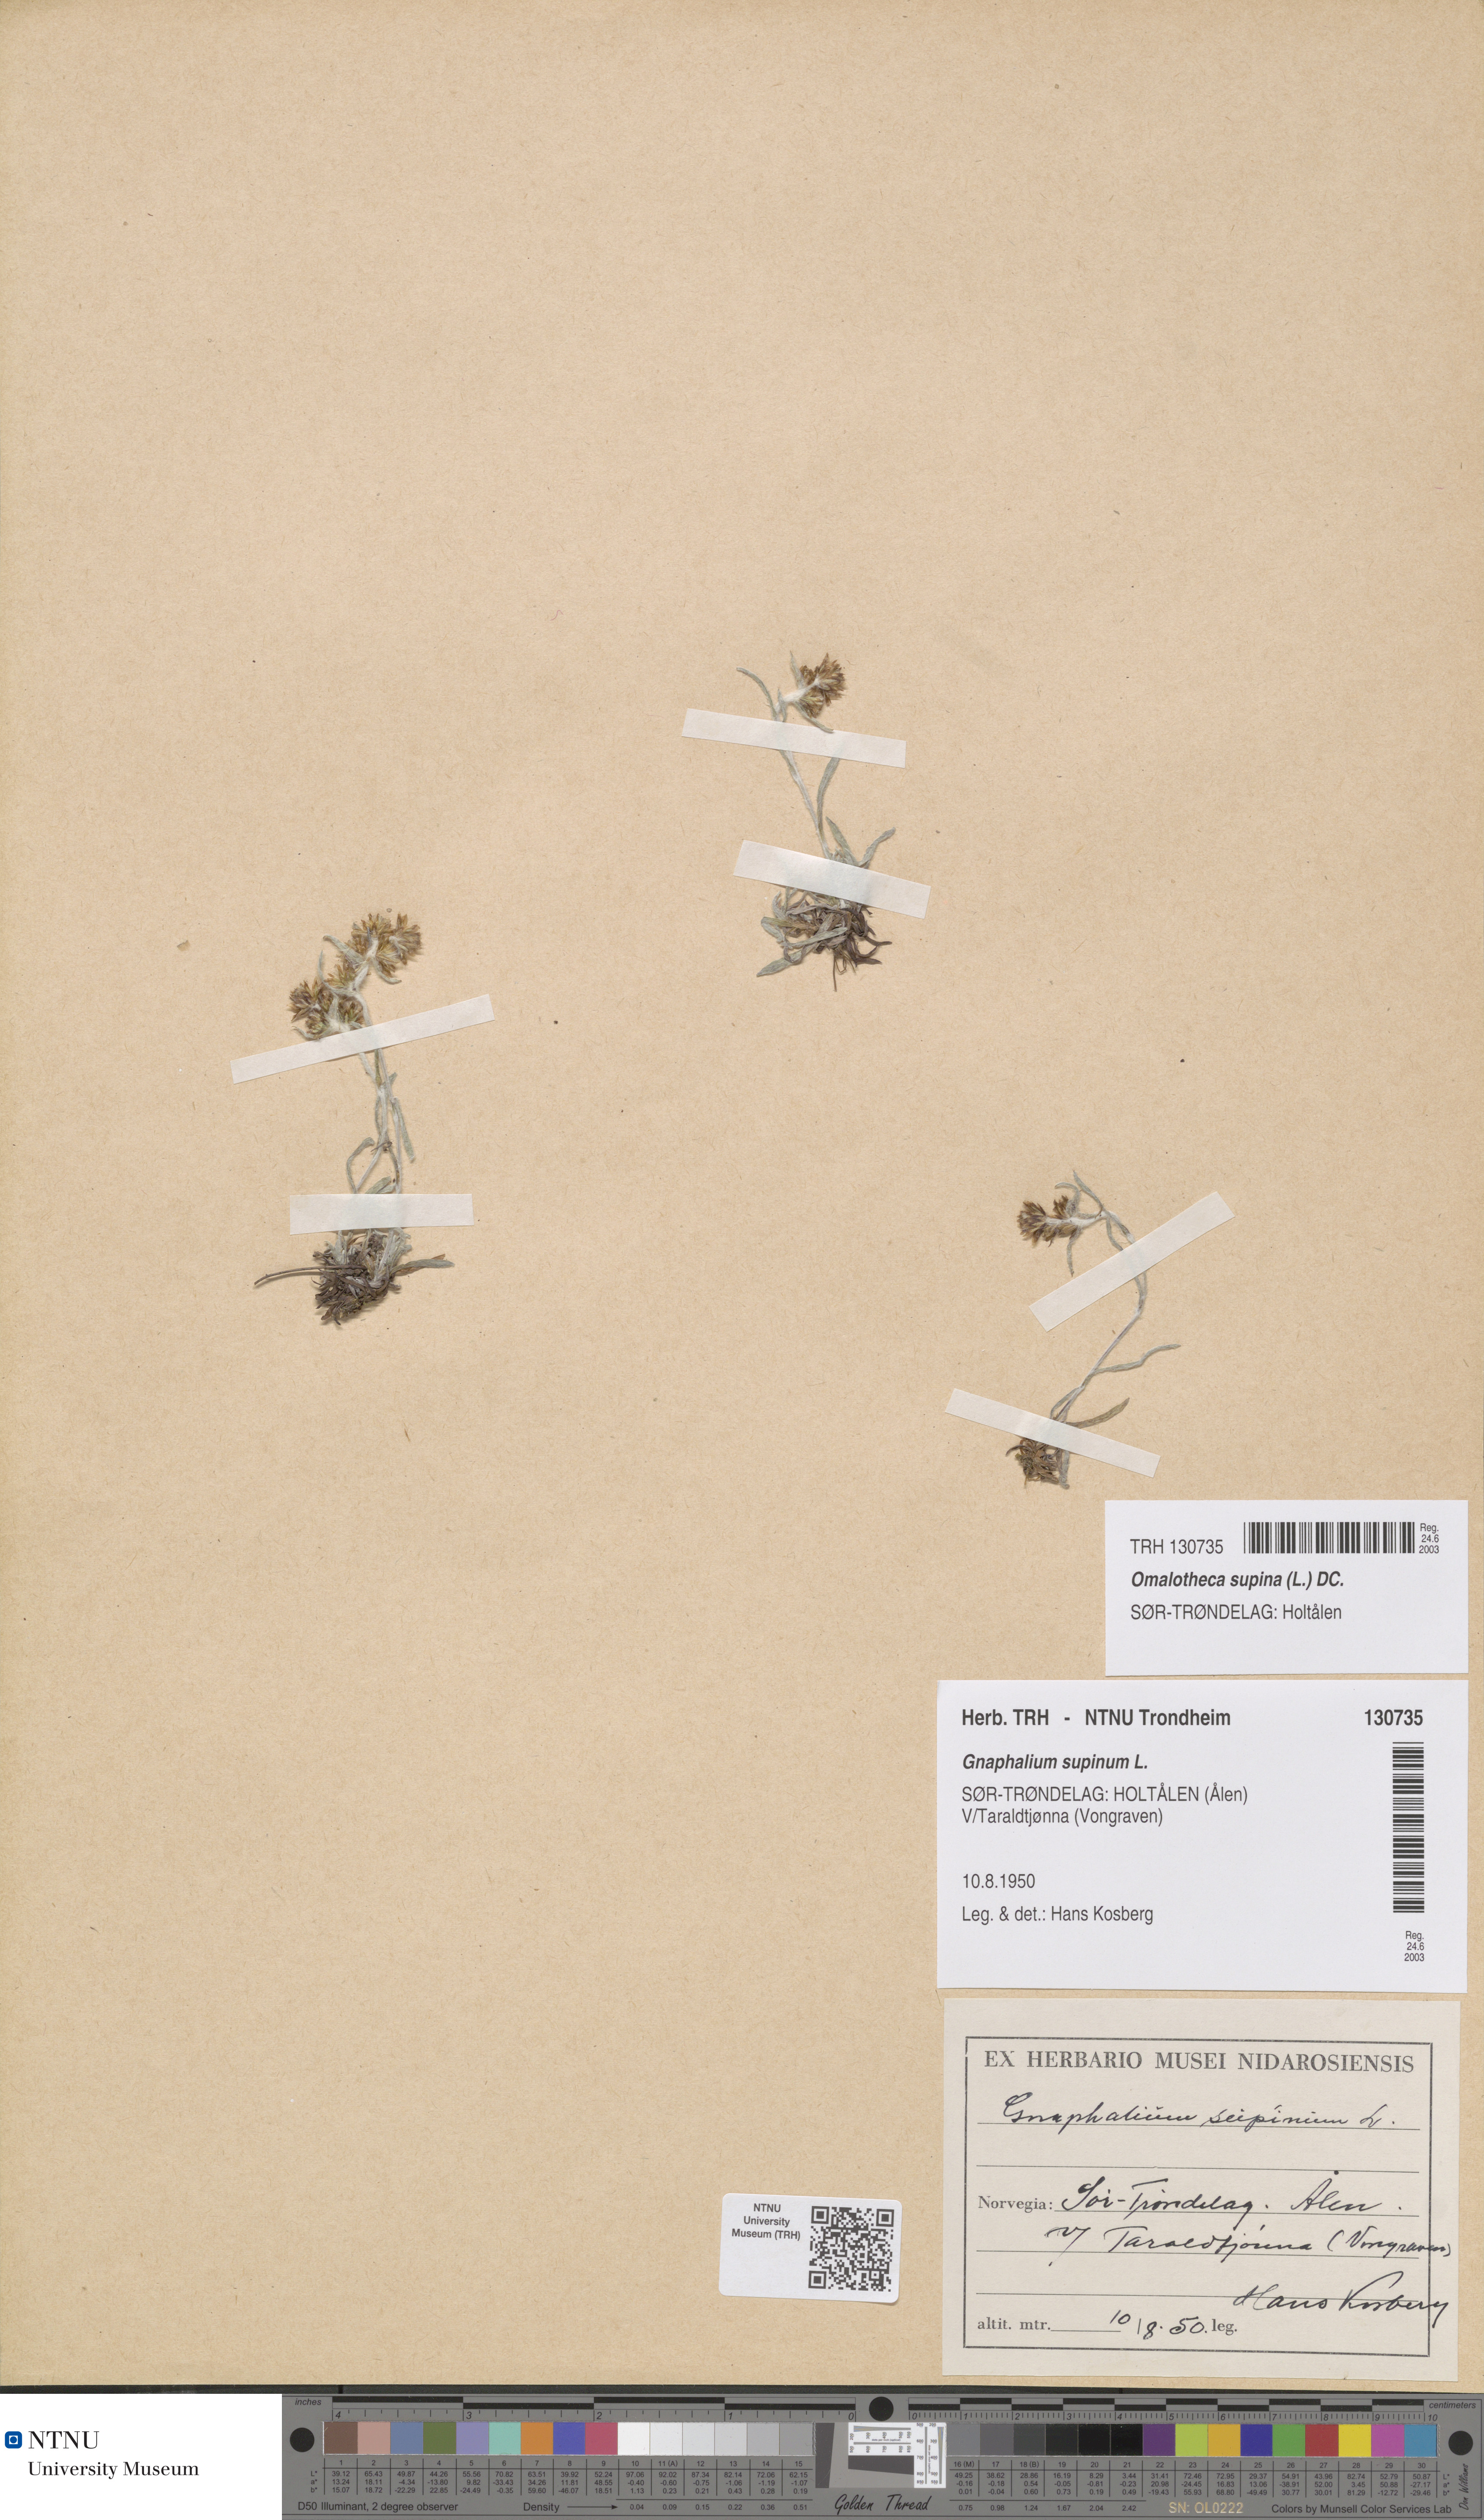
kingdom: Plantae
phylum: Tracheophyta
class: Magnoliopsida
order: Asterales
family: Asteraceae
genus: Omalotheca
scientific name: Omalotheca supina
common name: Alpine arctic-cudweed
